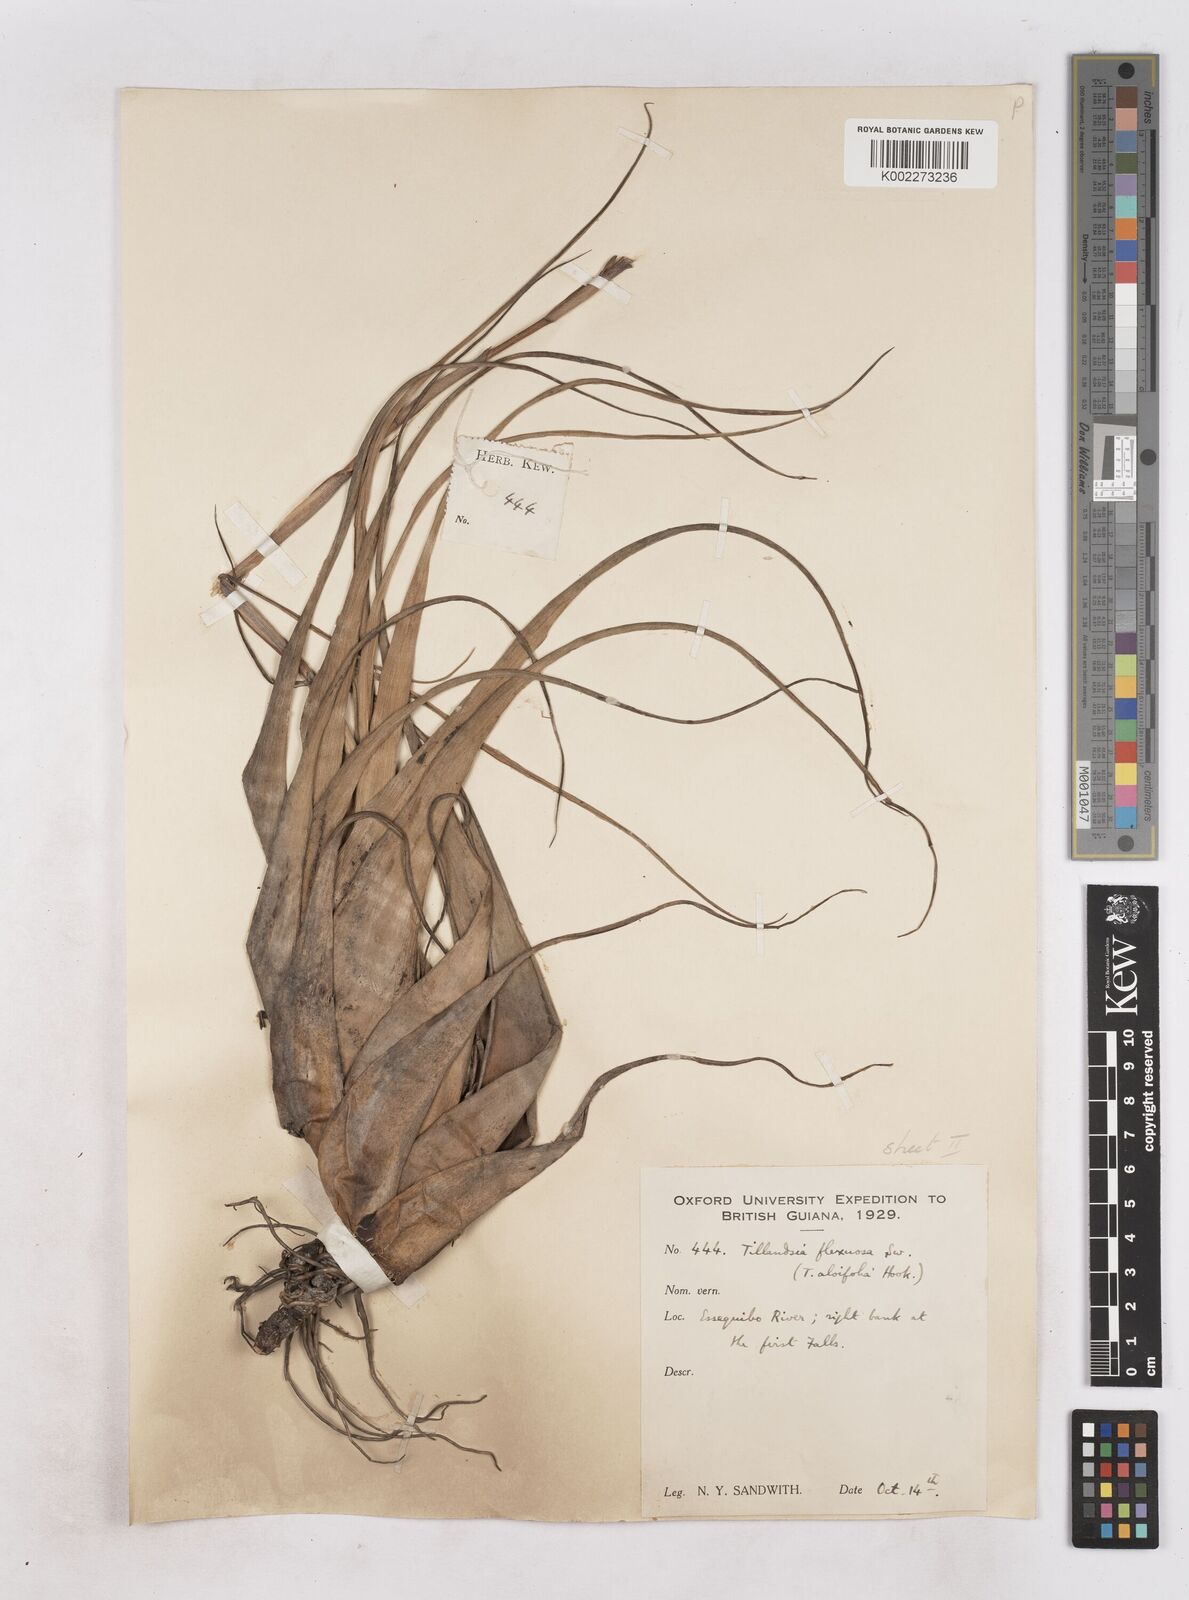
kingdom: Plantae
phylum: Tracheophyta
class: Liliopsida
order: Poales
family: Bromeliaceae
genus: Tillandsia
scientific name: Tillandsia flexuosa
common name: Banded airplant
